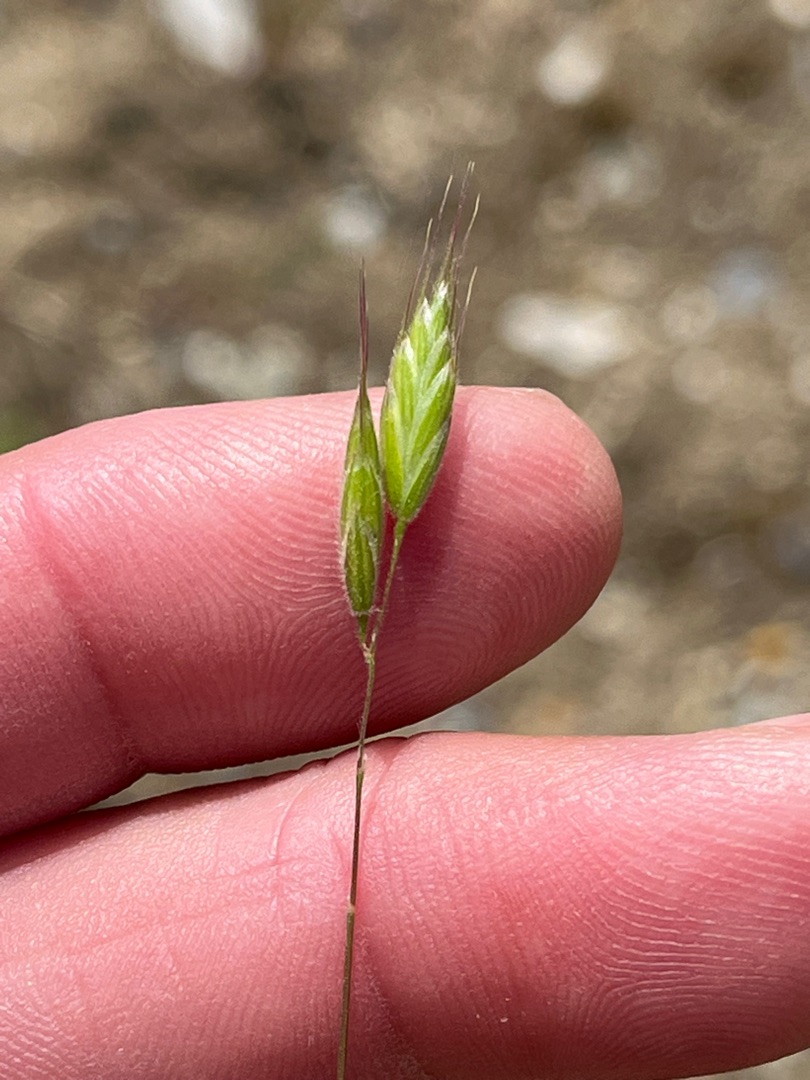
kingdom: Plantae
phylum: Tracheophyta
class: Liliopsida
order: Poales
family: Poaceae
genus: Bromus
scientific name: Bromus hordeaceus
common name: Blød hejre
